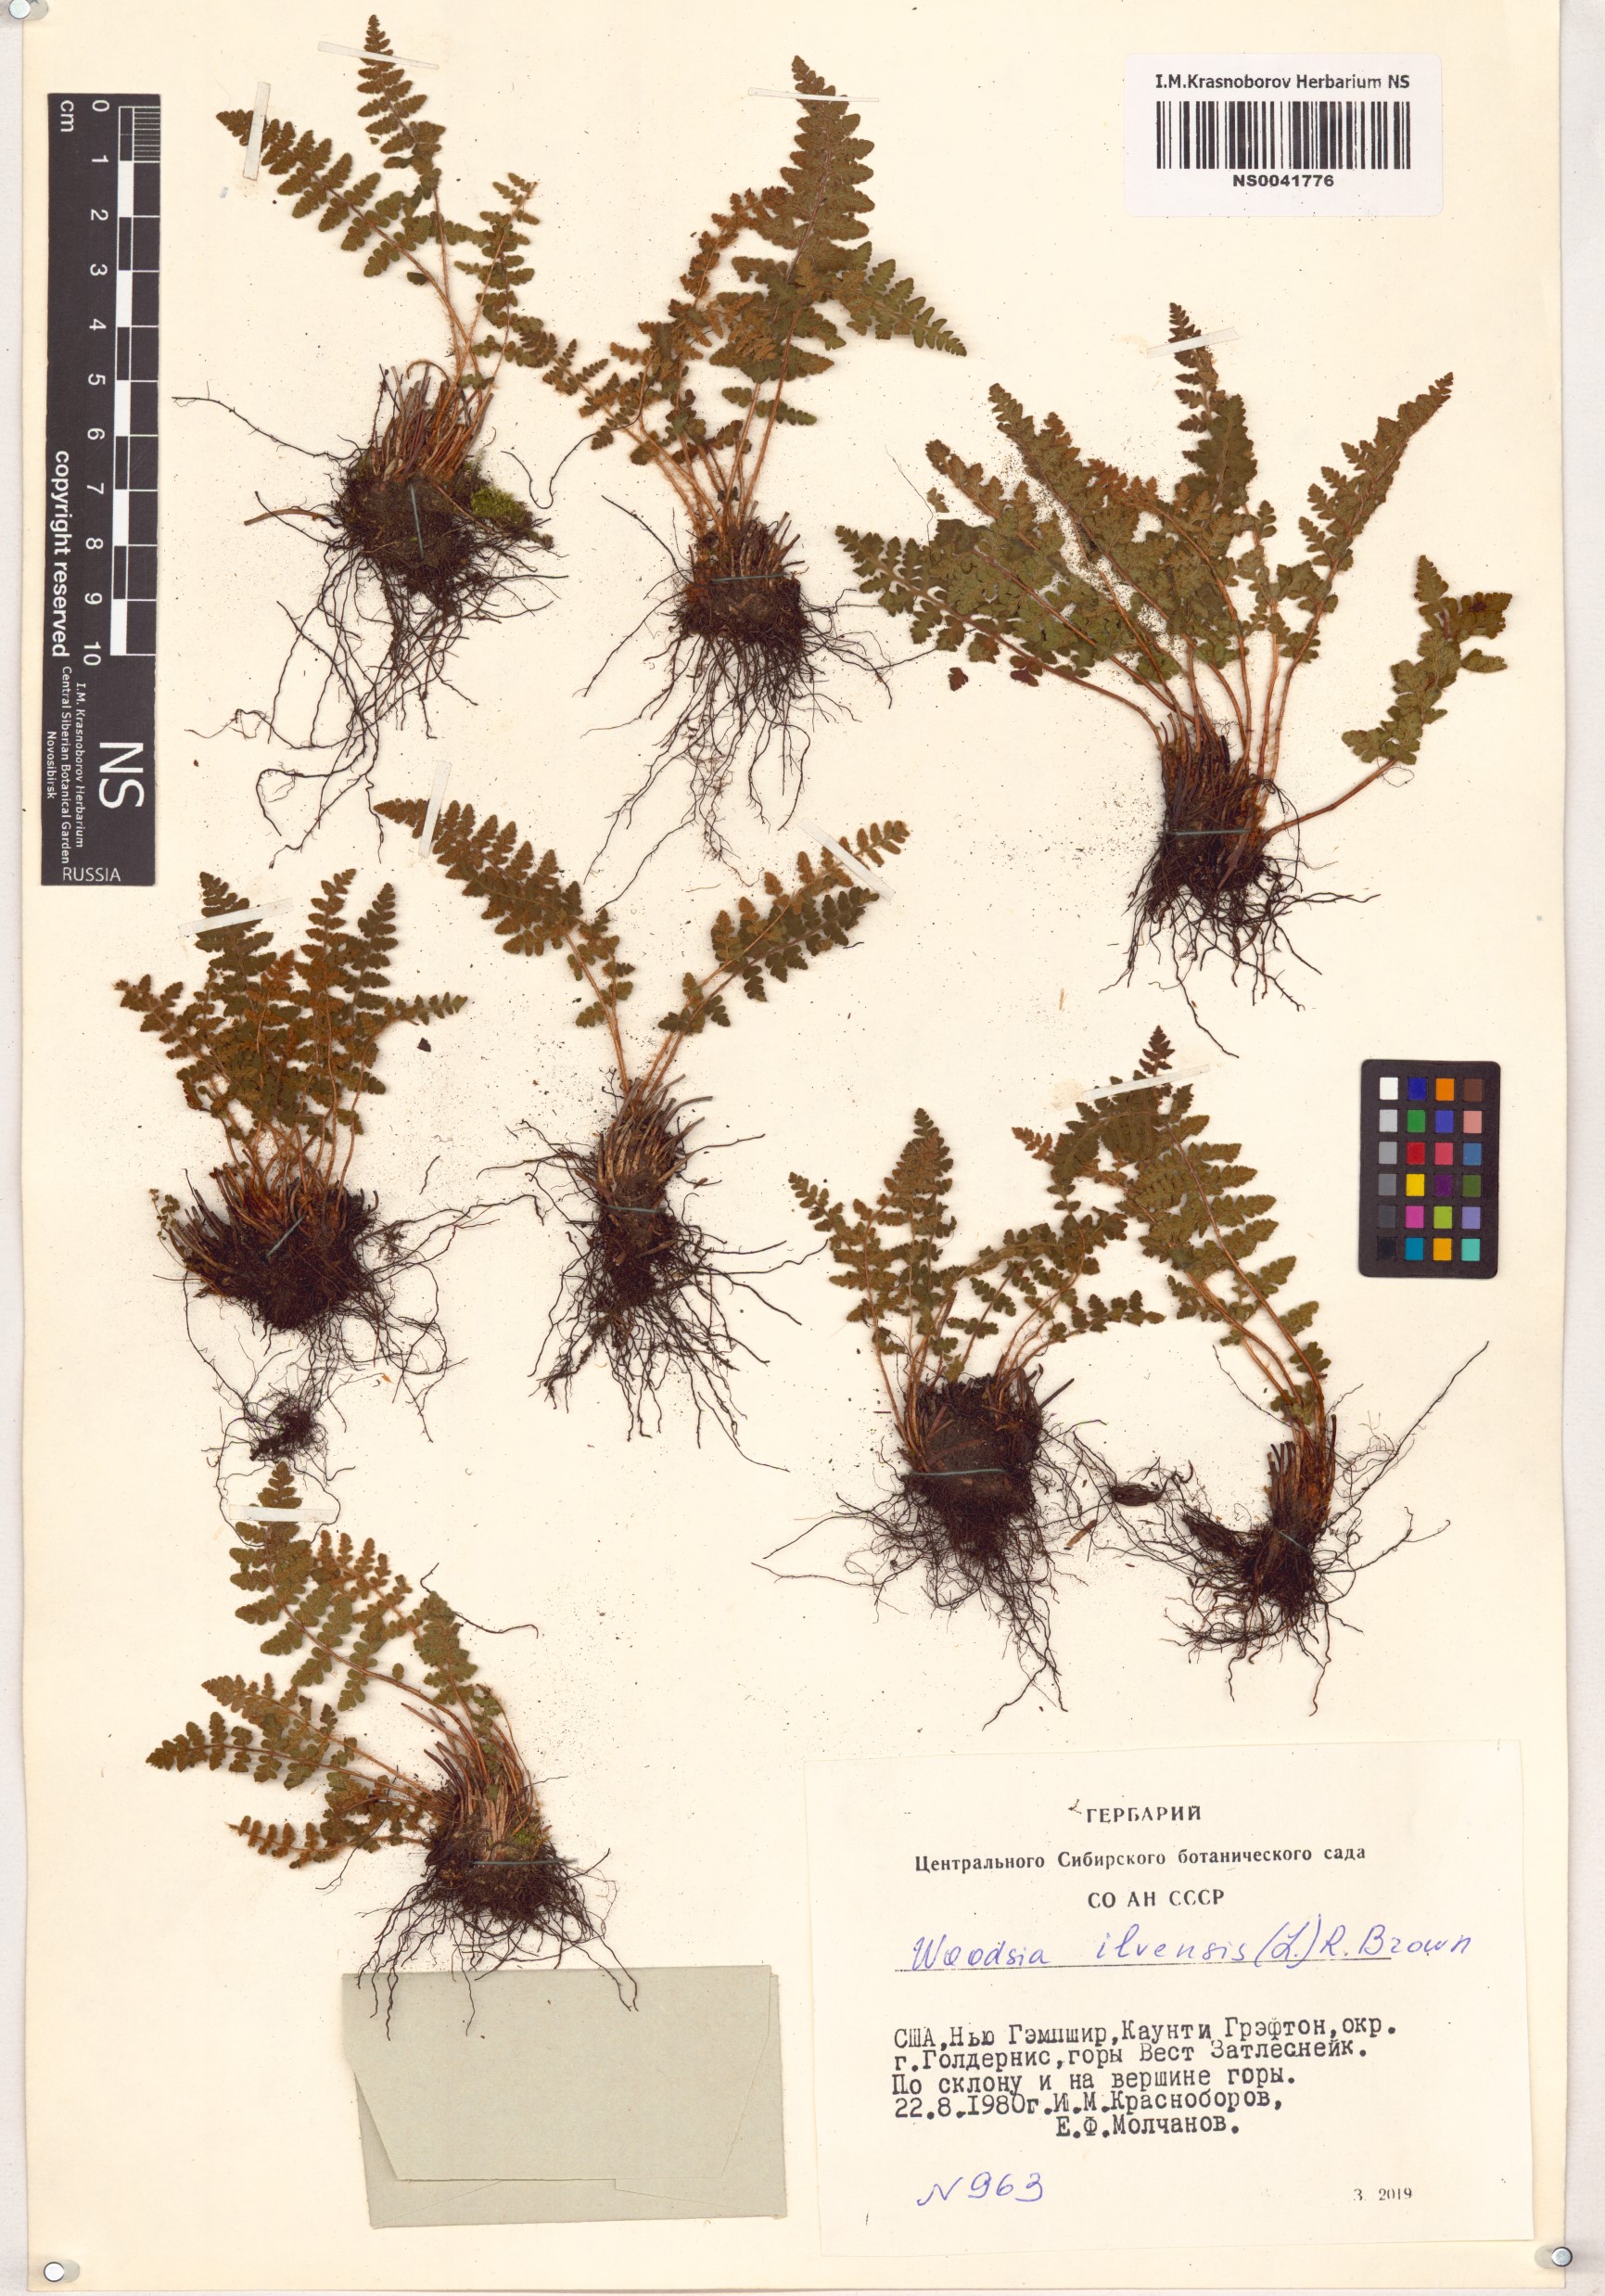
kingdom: Plantae
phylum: Tracheophyta
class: Polypodiopsida
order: Polypodiales
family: Woodsiaceae
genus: Woodsia
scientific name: Woodsia ilvensis
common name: Fragrant woodsia
